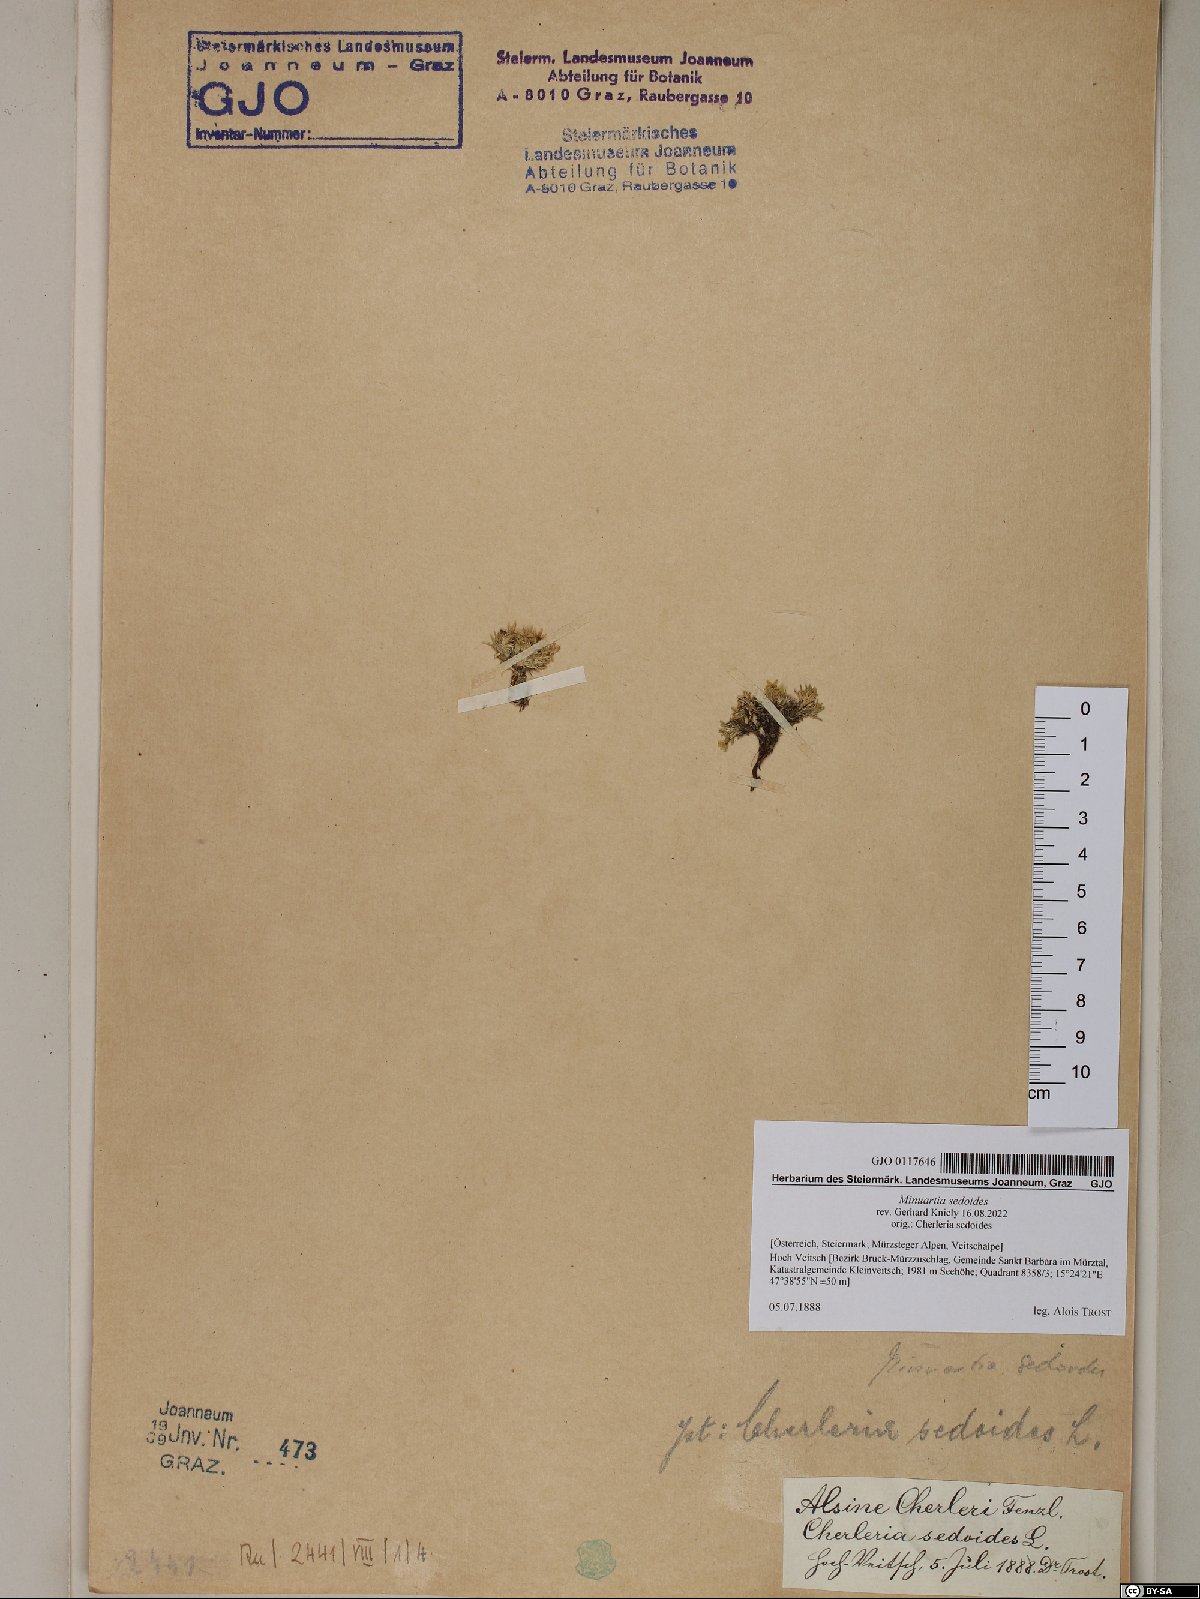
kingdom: Plantae
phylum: Tracheophyta
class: Magnoliopsida
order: Caryophyllales
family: Caryophyllaceae
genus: Cherleria
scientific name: Cherleria sedoides
